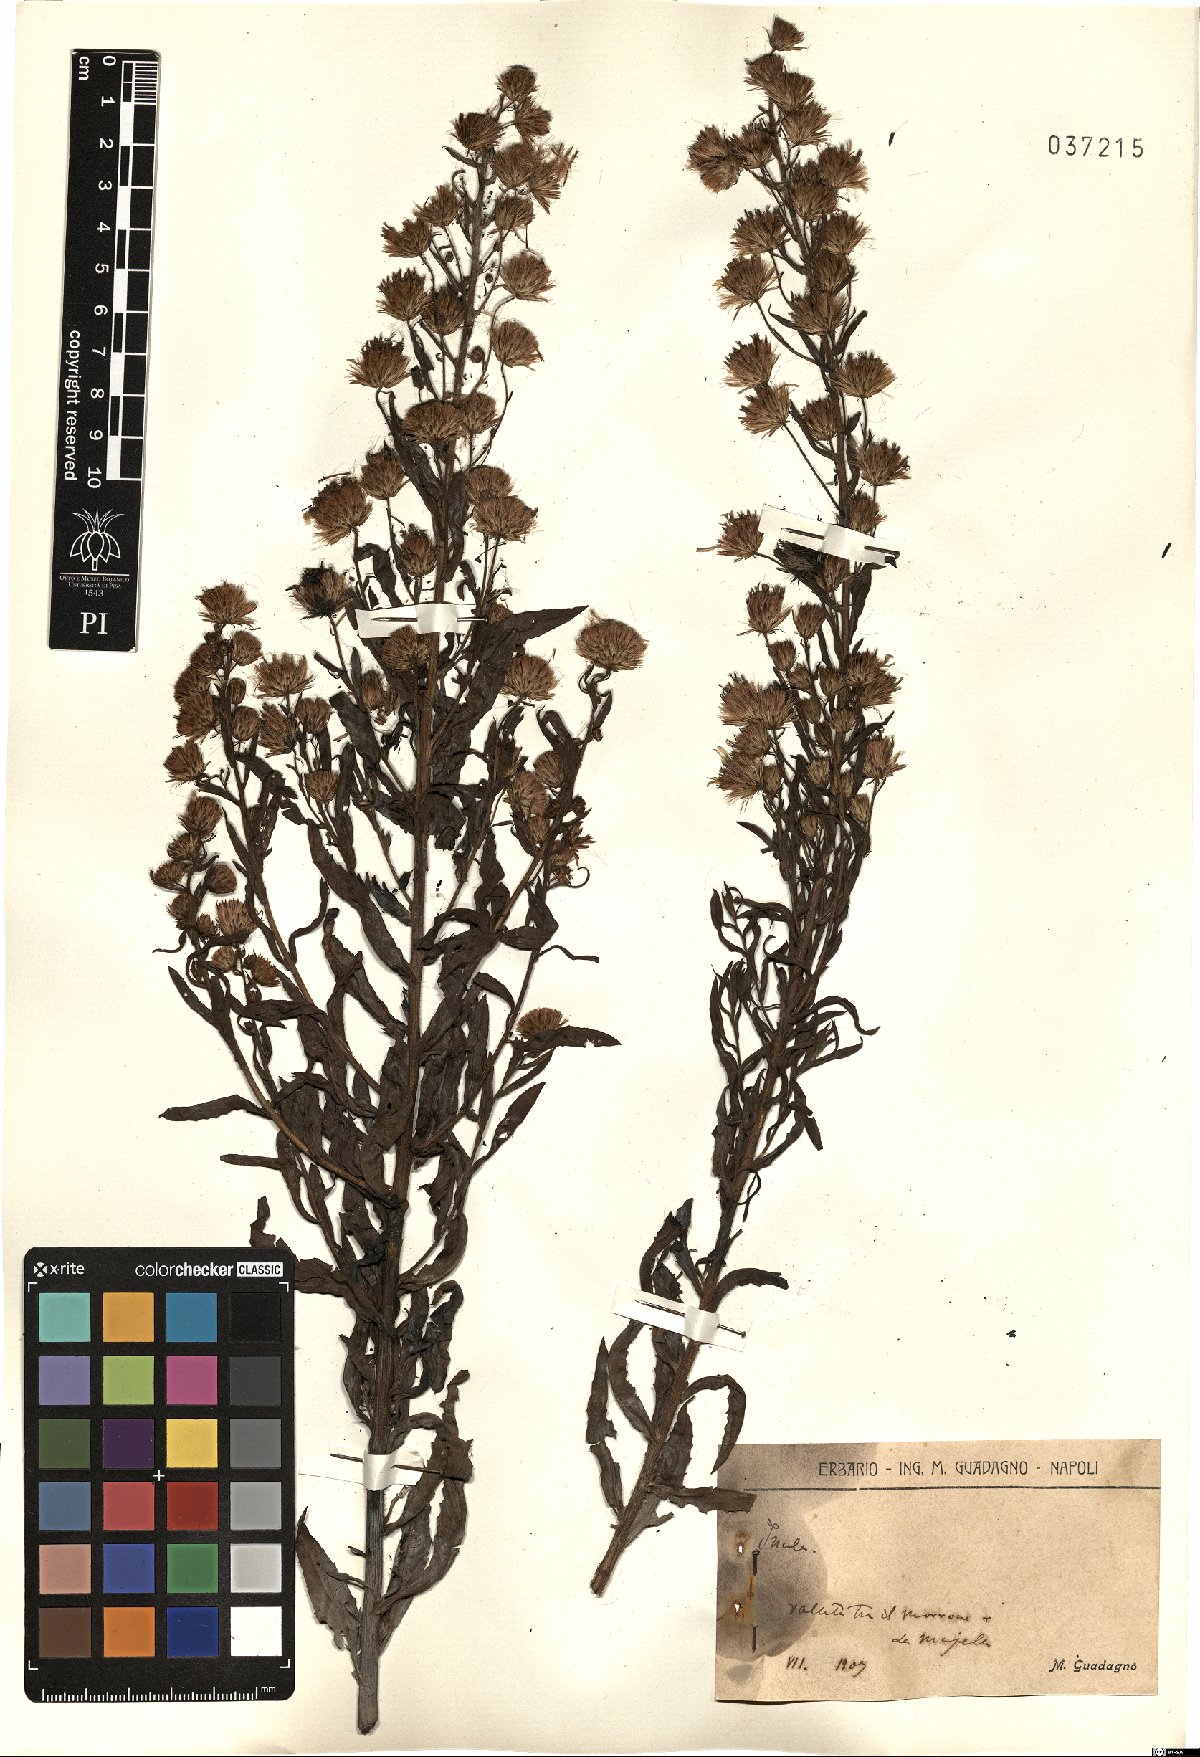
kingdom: Plantae
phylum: Tracheophyta
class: Magnoliopsida
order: Asterales
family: Asteraceae
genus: Inula
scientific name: Inula
